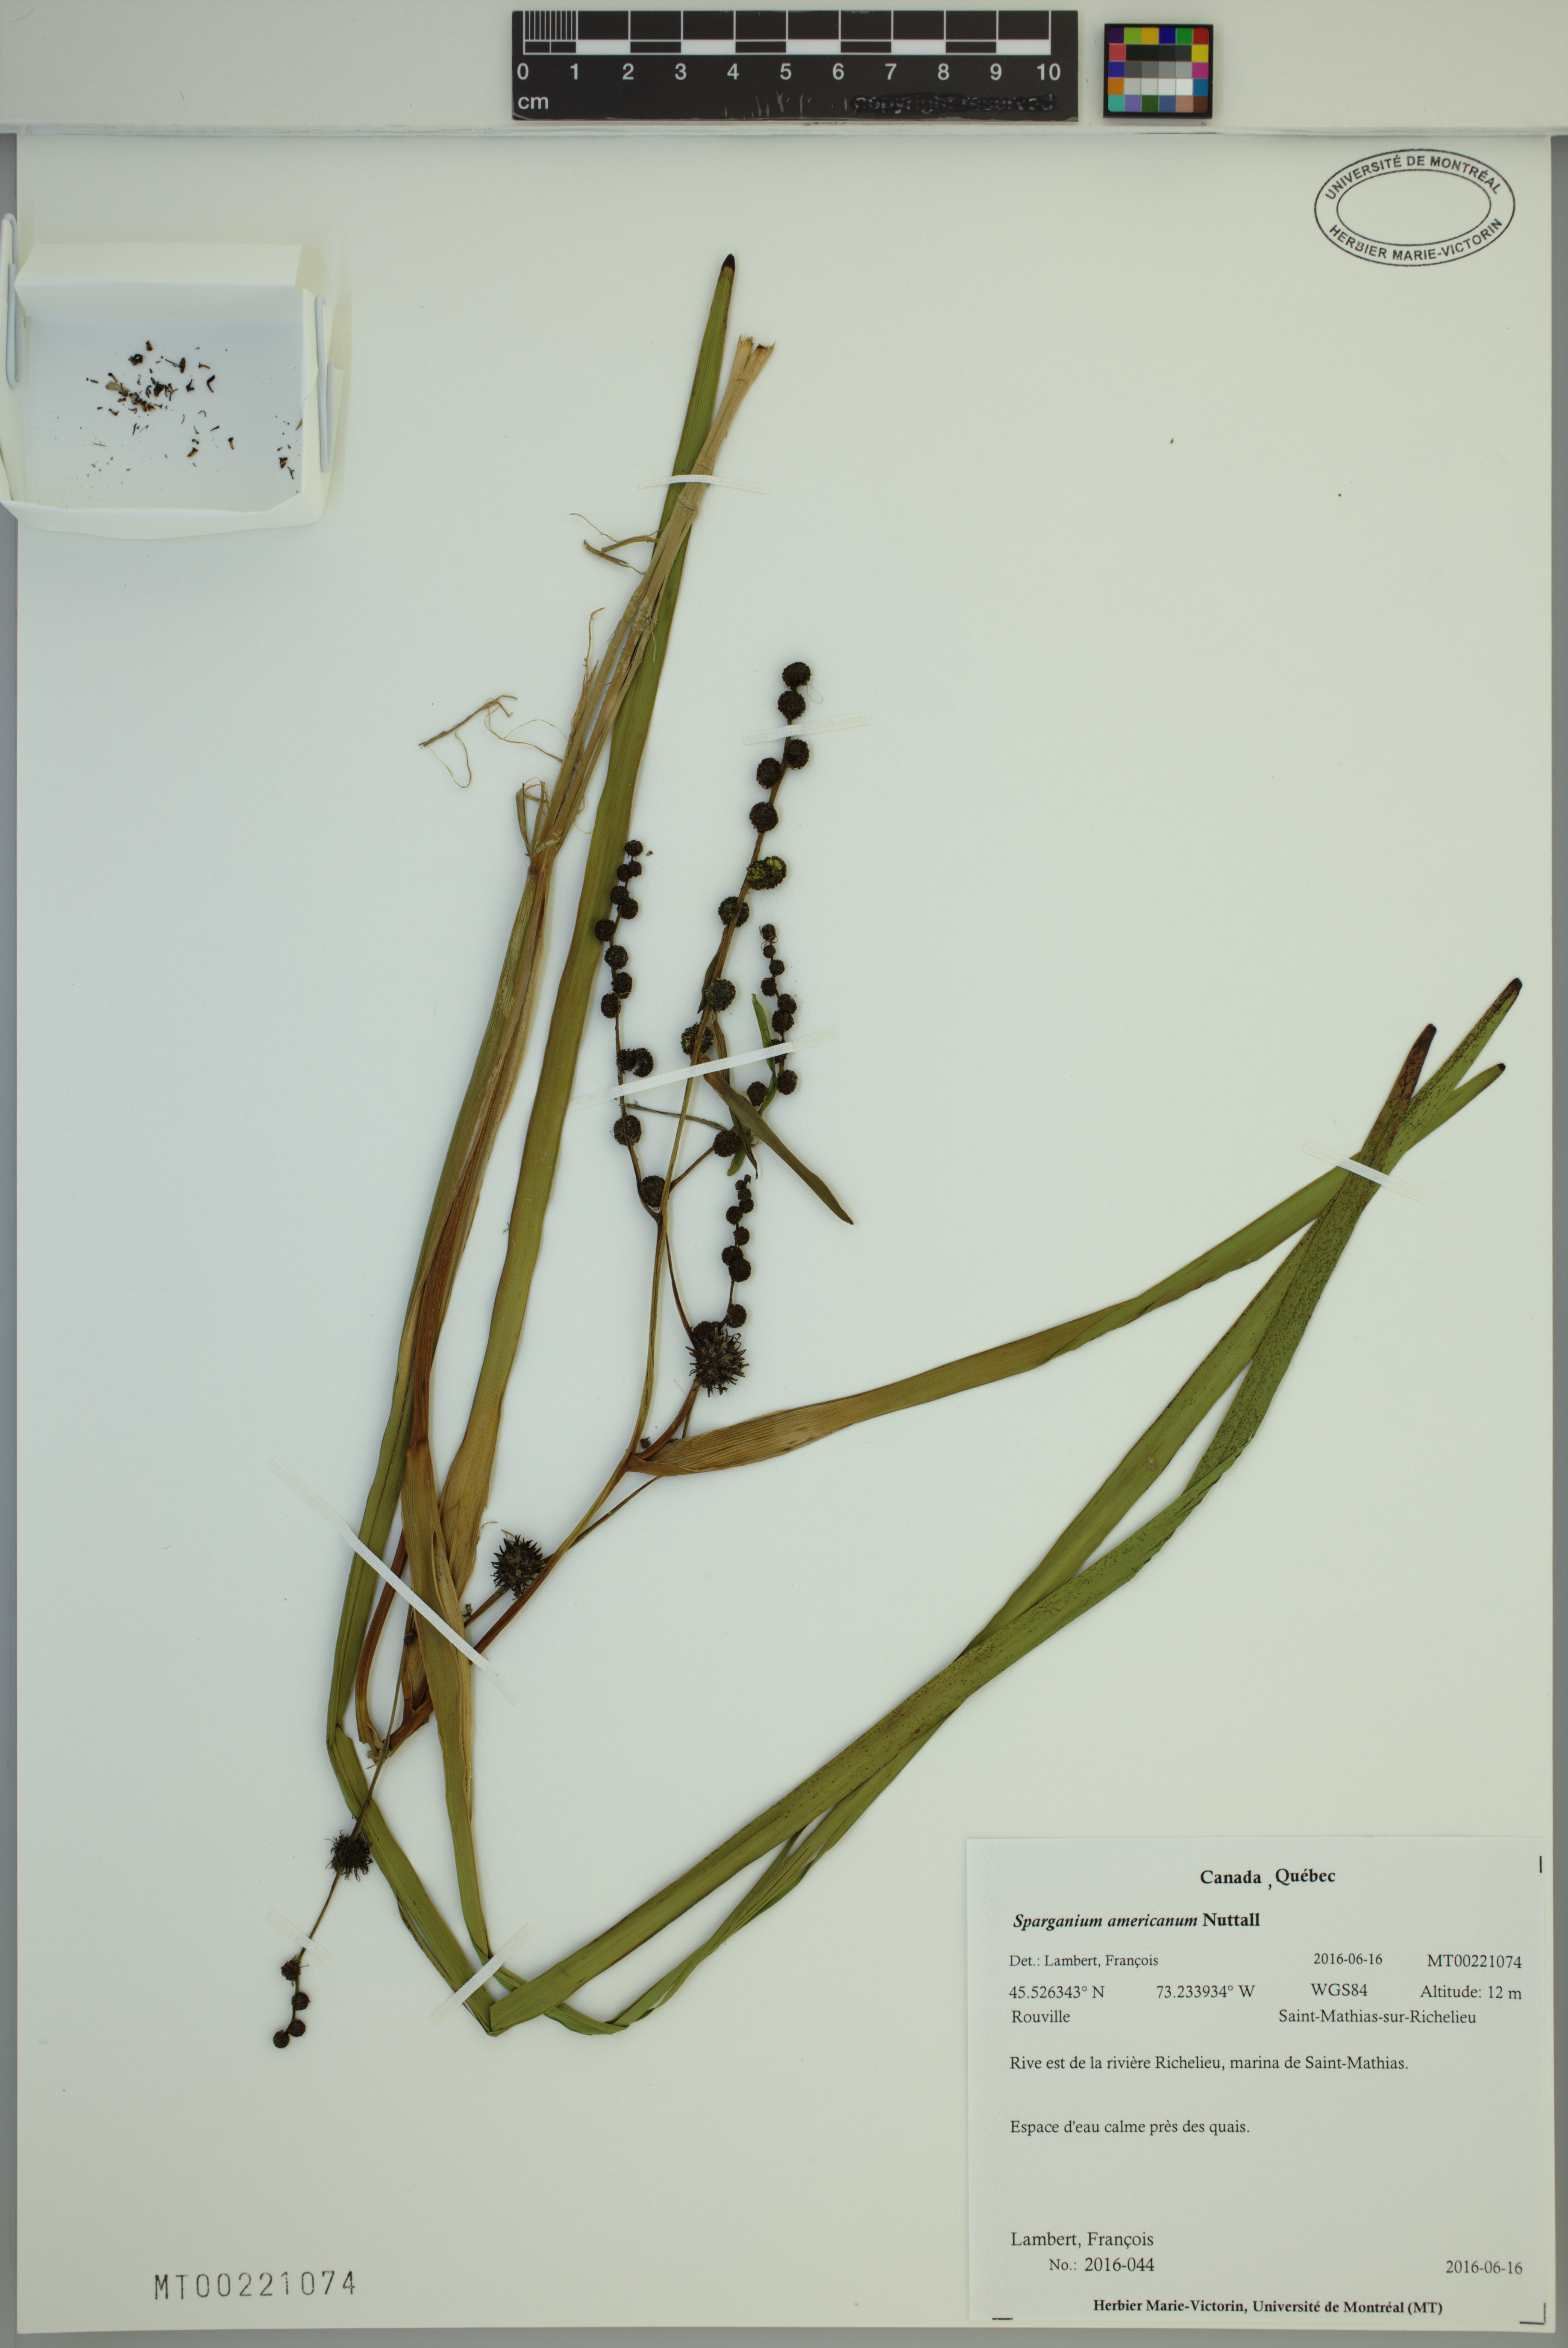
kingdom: Plantae
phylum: Tracheophyta
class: Liliopsida
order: Poales
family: Typhaceae
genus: Sparganium
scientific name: Sparganium americanum
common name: American burreed
